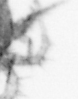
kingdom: Animalia
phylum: Arthropoda
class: Copepoda
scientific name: Copepoda
